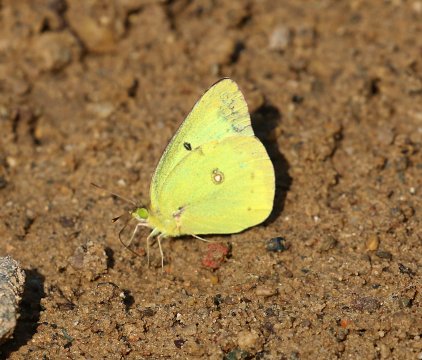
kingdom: Animalia
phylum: Arthropoda
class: Insecta
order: Lepidoptera
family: Pieridae
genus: Colias
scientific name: Colias philodice
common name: Clouded Sulphur
